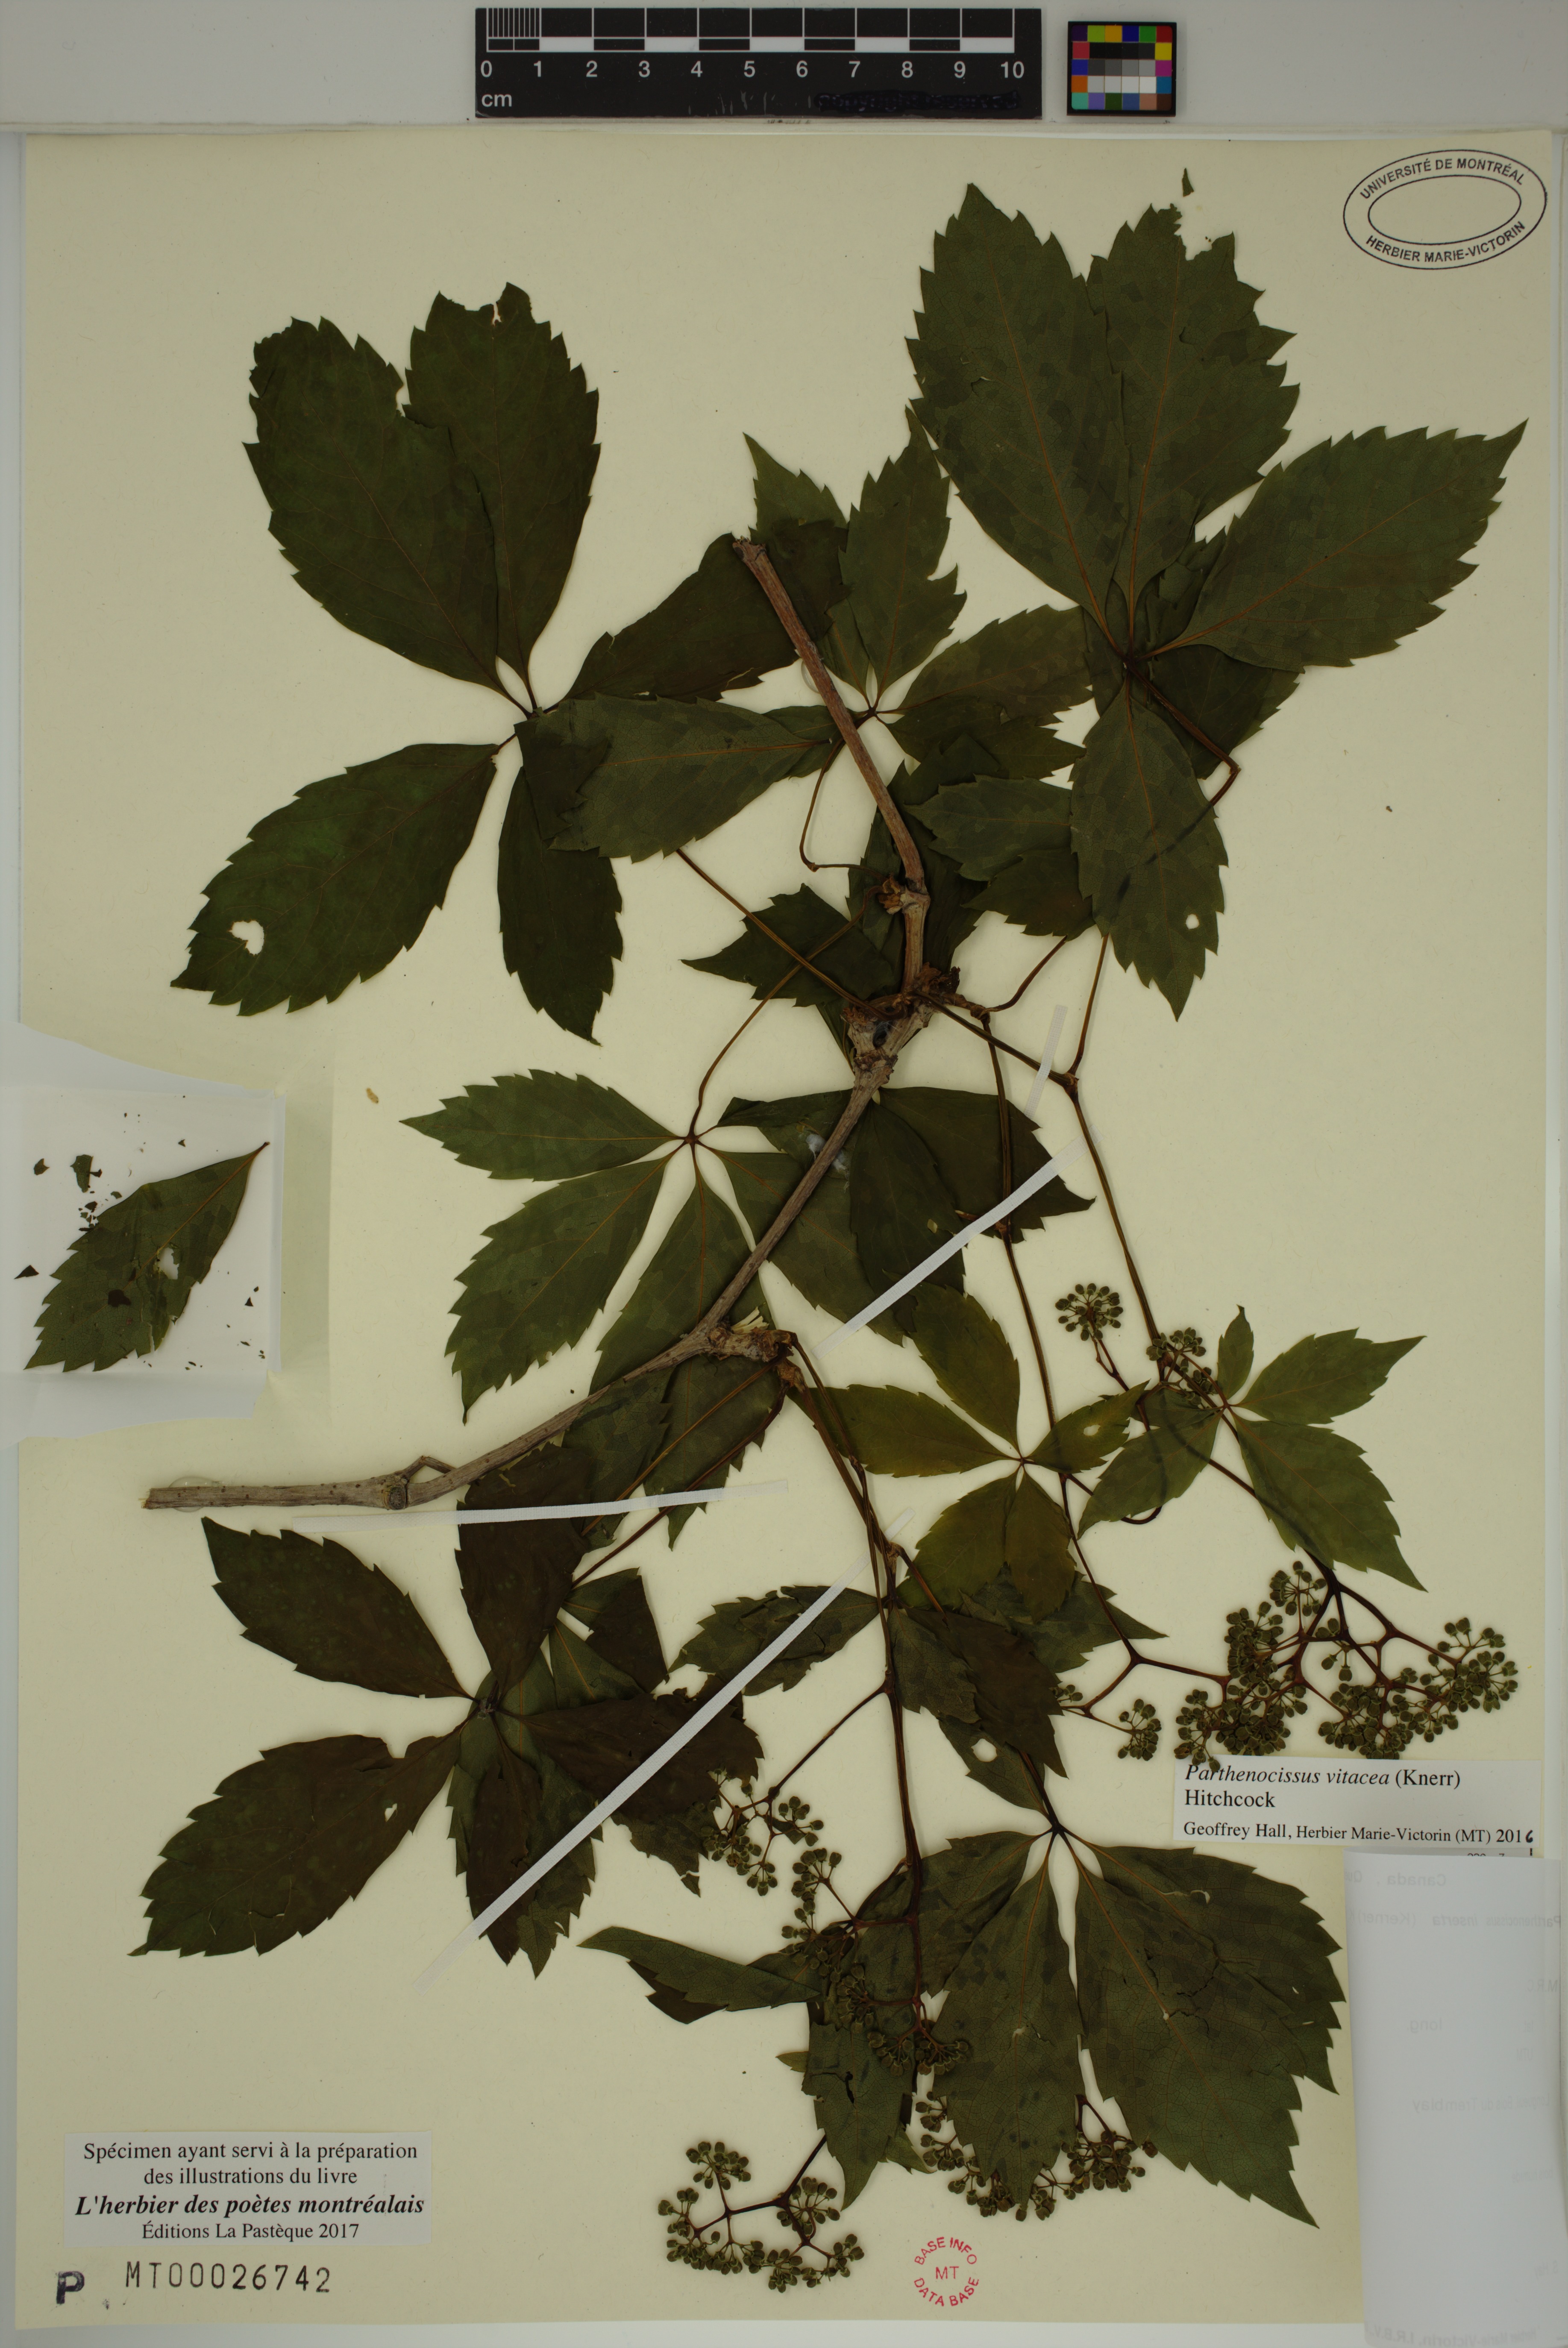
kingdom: Plantae
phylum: Tracheophyta
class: Magnoliopsida
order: Vitales
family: Vitaceae
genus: Parthenocissus
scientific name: Parthenocissus inserta
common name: False virginia-creeper
